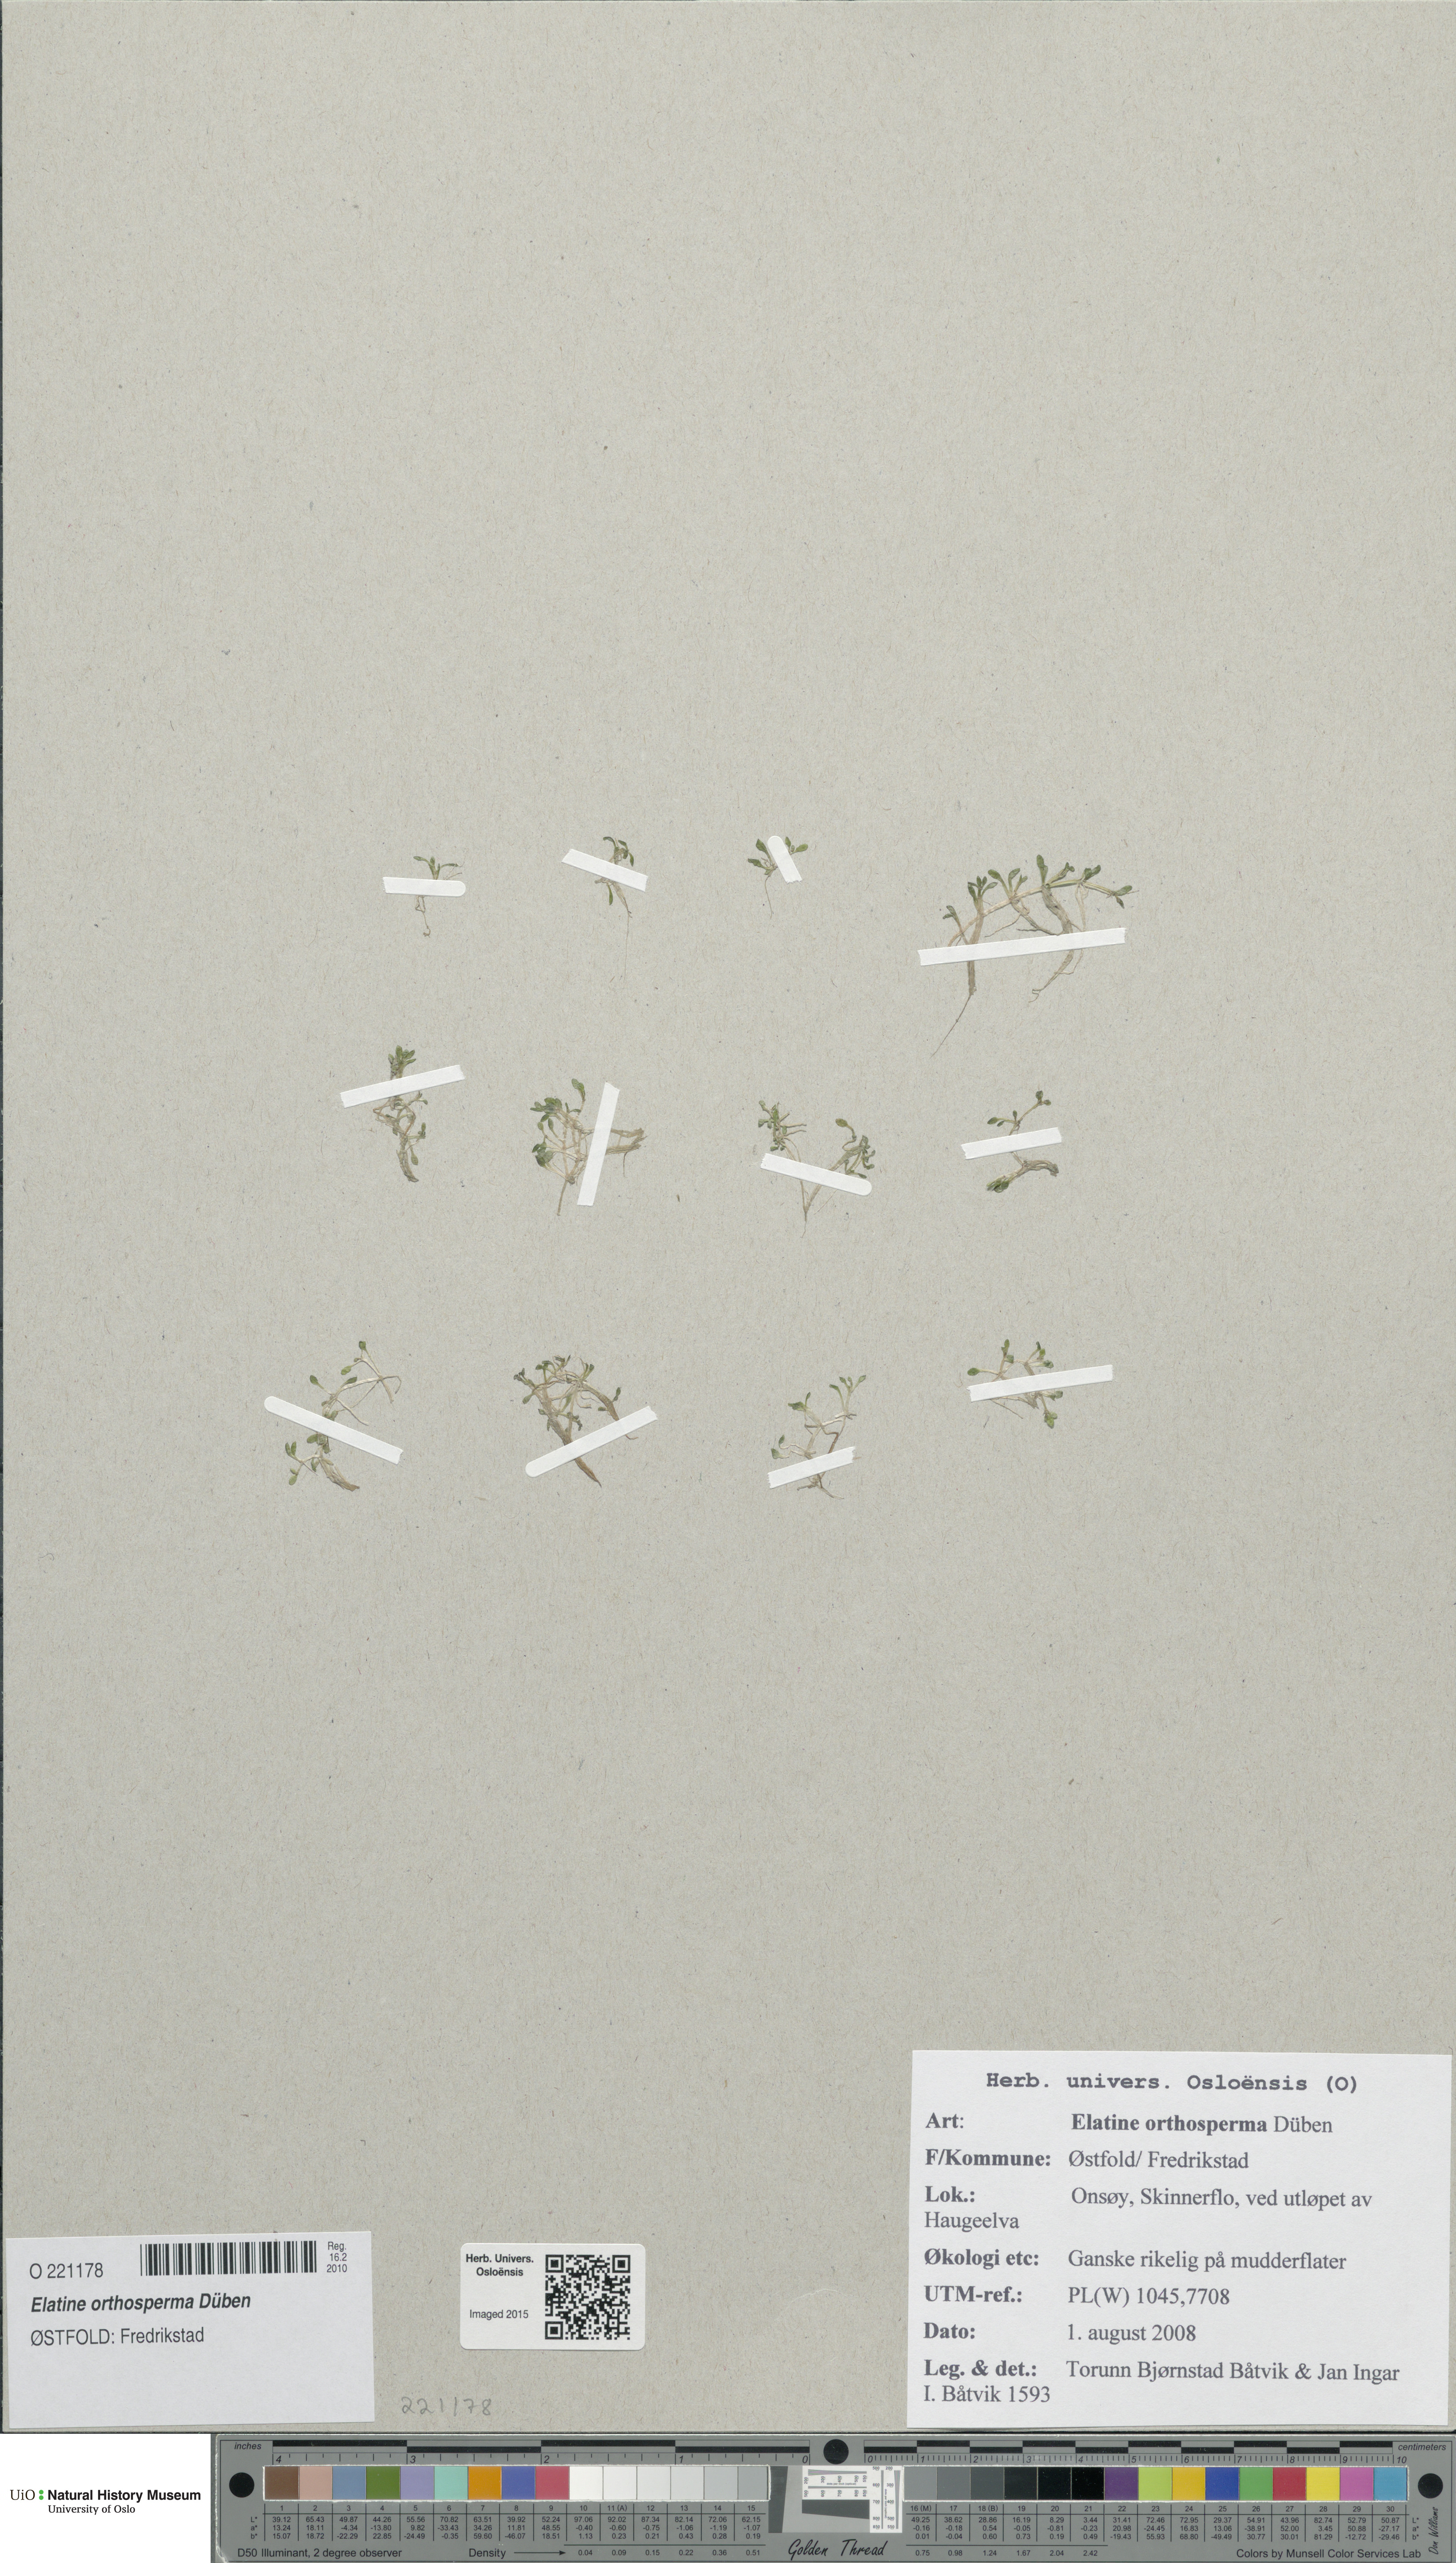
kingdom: Plantae
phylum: Tracheophyta
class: Magnoliopsida
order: Malpighiales
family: Elatinaceae
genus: Elatine
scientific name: Elatine orthosperma
